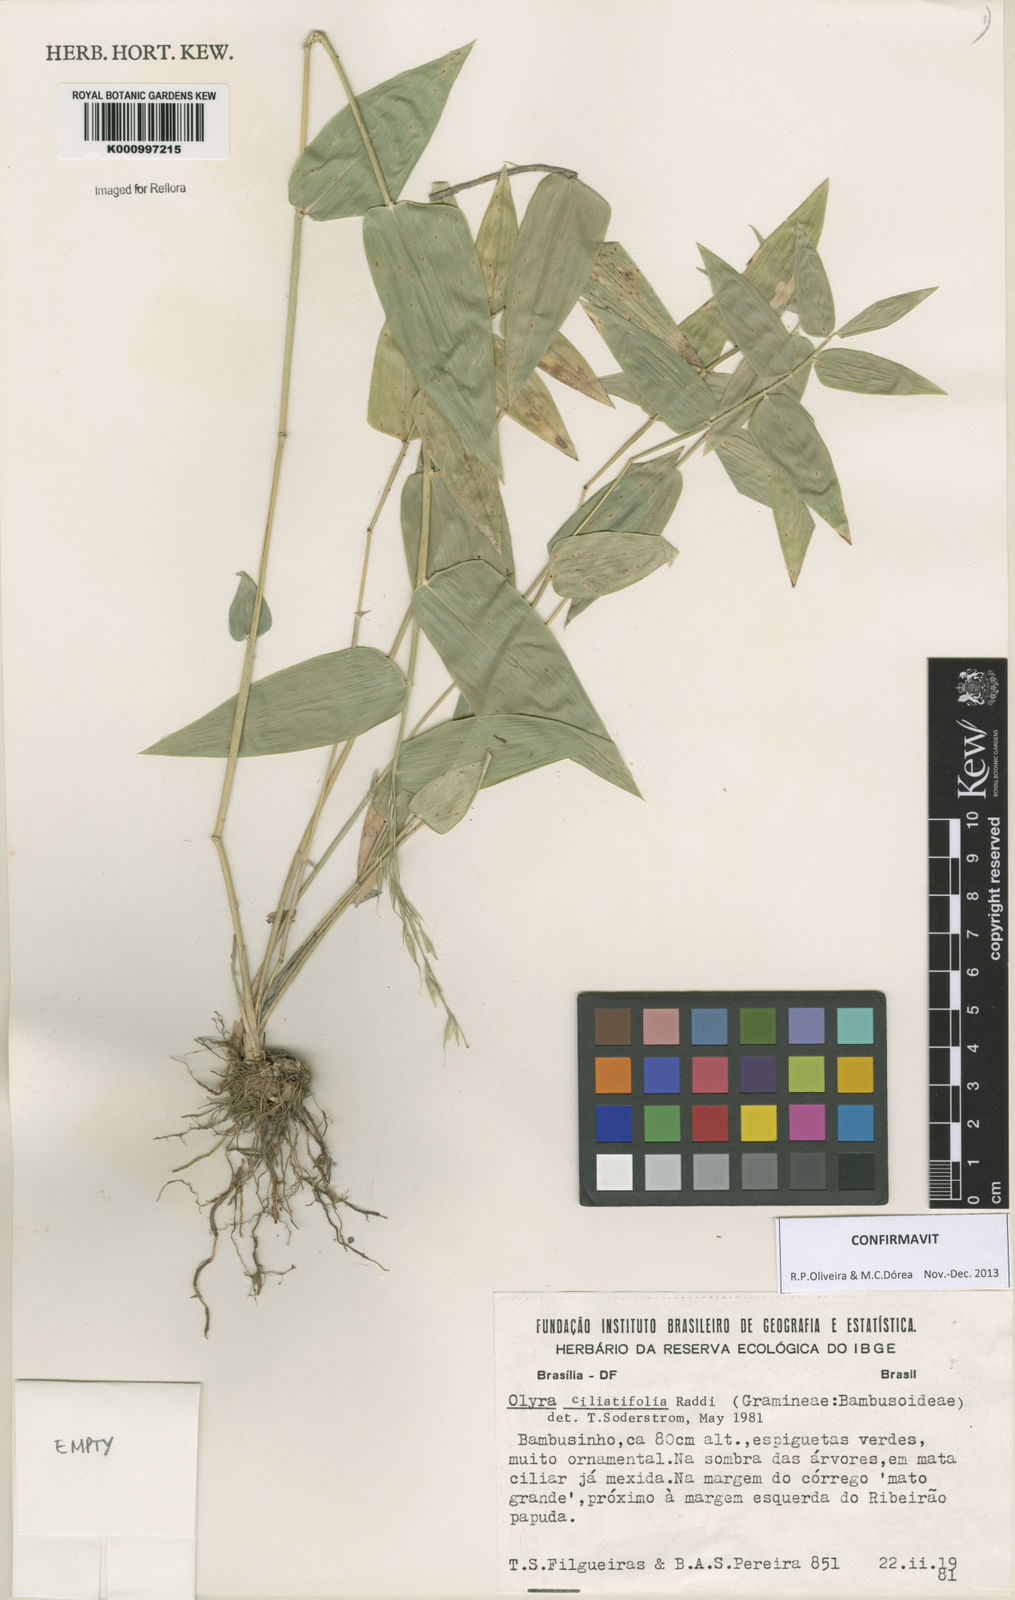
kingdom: Plantae
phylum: Tracheophyta
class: Liliopsida
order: Poales
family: Poaceae
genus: Olyra
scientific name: Olyra ciliatifolia
